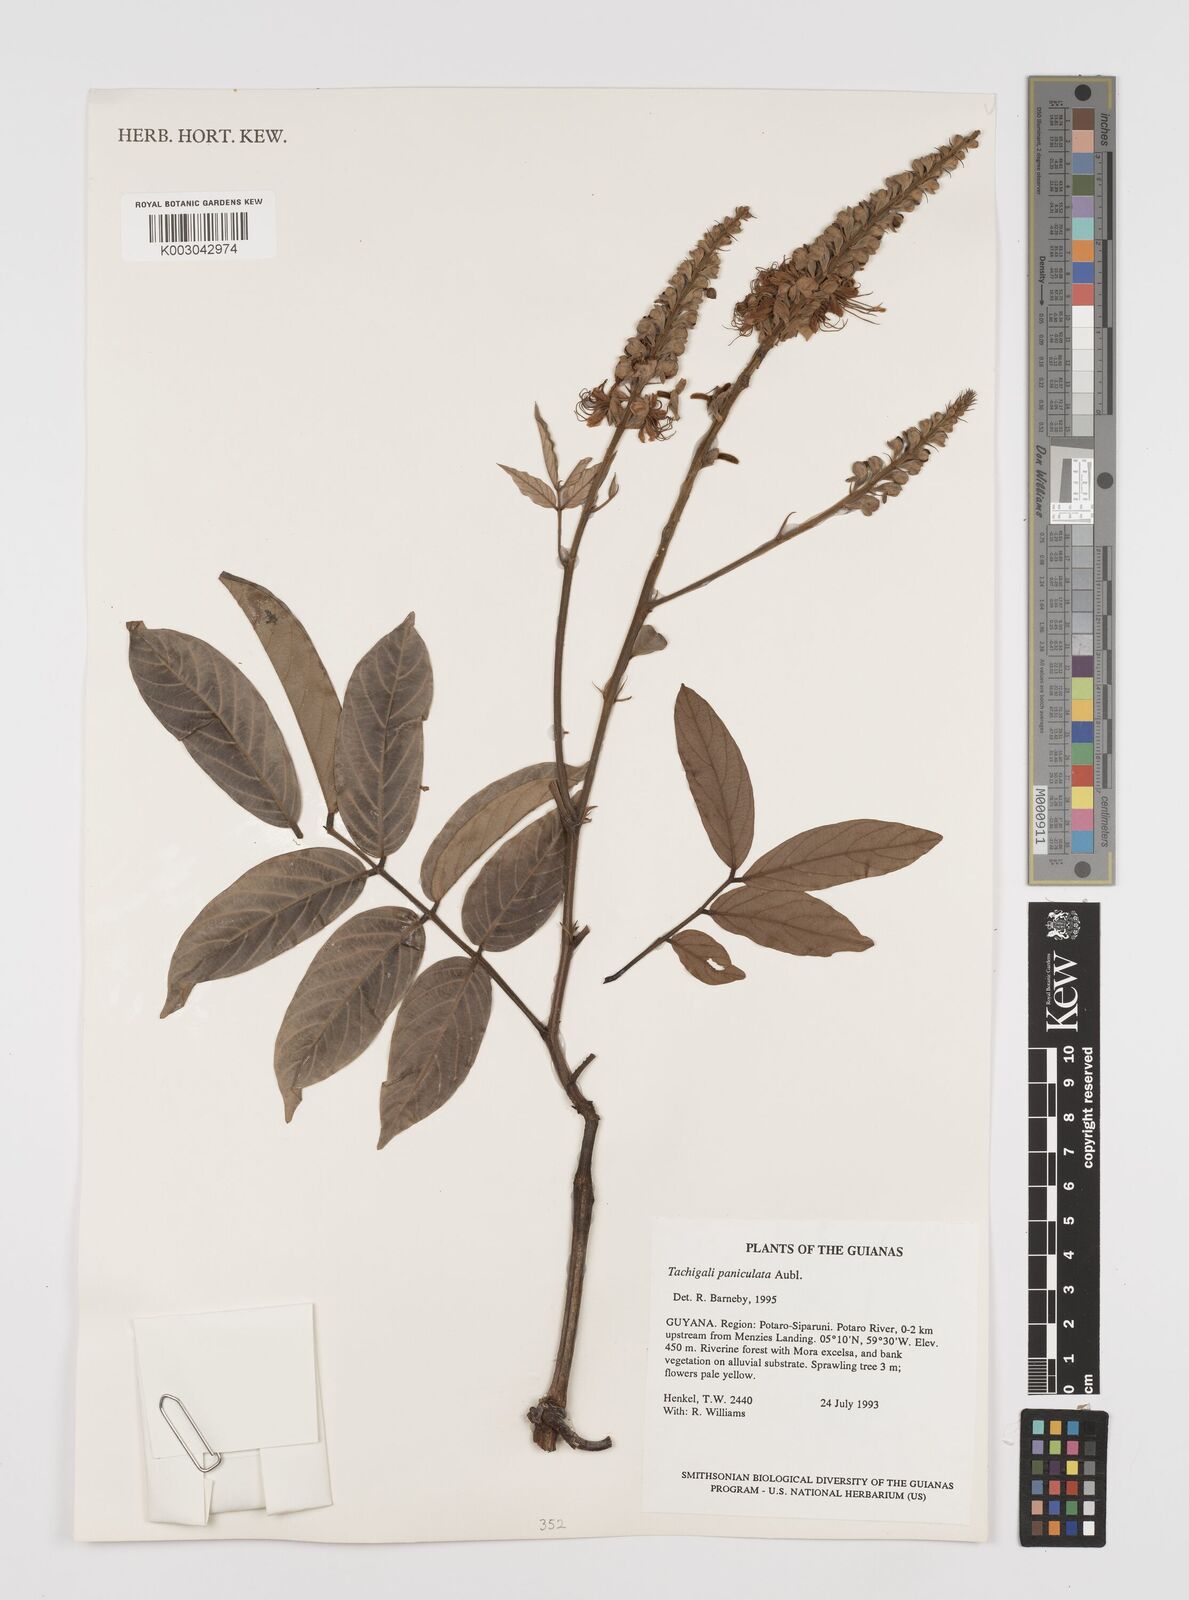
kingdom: Plantae
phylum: Tracheophyta
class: Magnoliopsida
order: Fabales
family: Fabaceae
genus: Tachigali
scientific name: Tachigali paniculata
